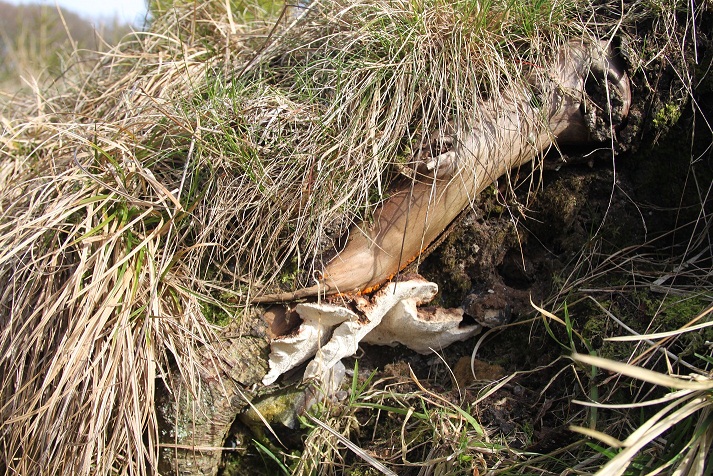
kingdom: Fungi
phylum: Basidiomycota
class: Agaricomycetes
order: Russulales
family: Bondarzewiaceae
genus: Heterobasidion
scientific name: Heterobasidion annosum
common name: almindelig rodfordærver
